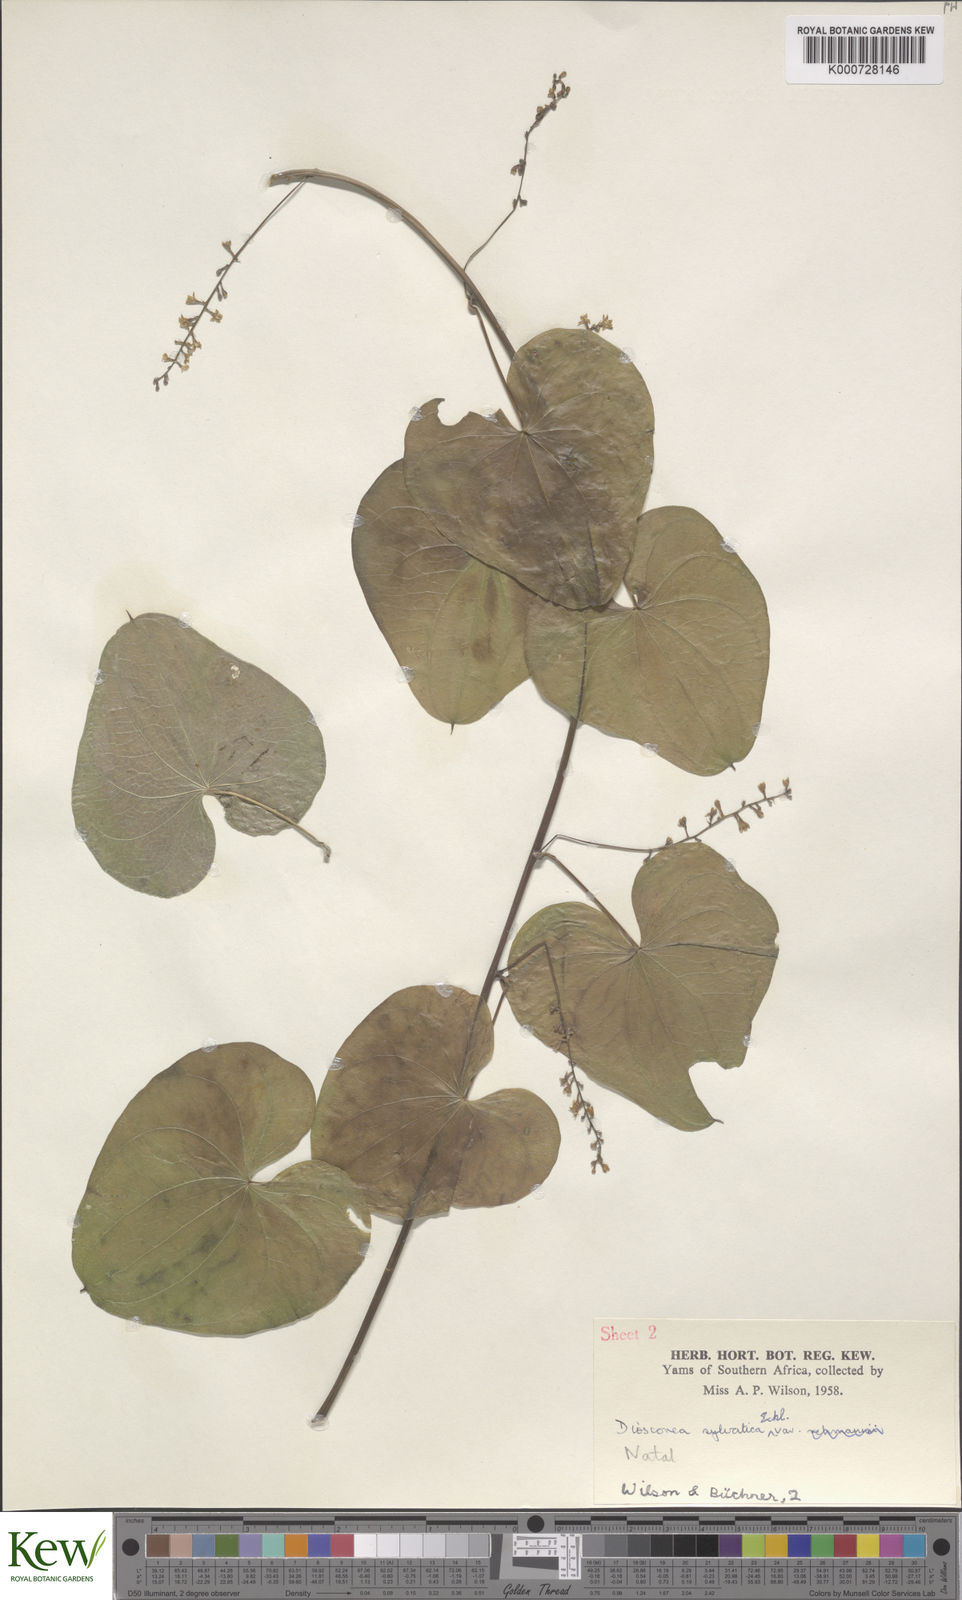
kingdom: Plantae
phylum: Tracheophyta
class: Liliopsida
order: Dioscoreales
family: Dioscoreaceae
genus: Dioscorea
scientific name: Dioscorea sylvatica
